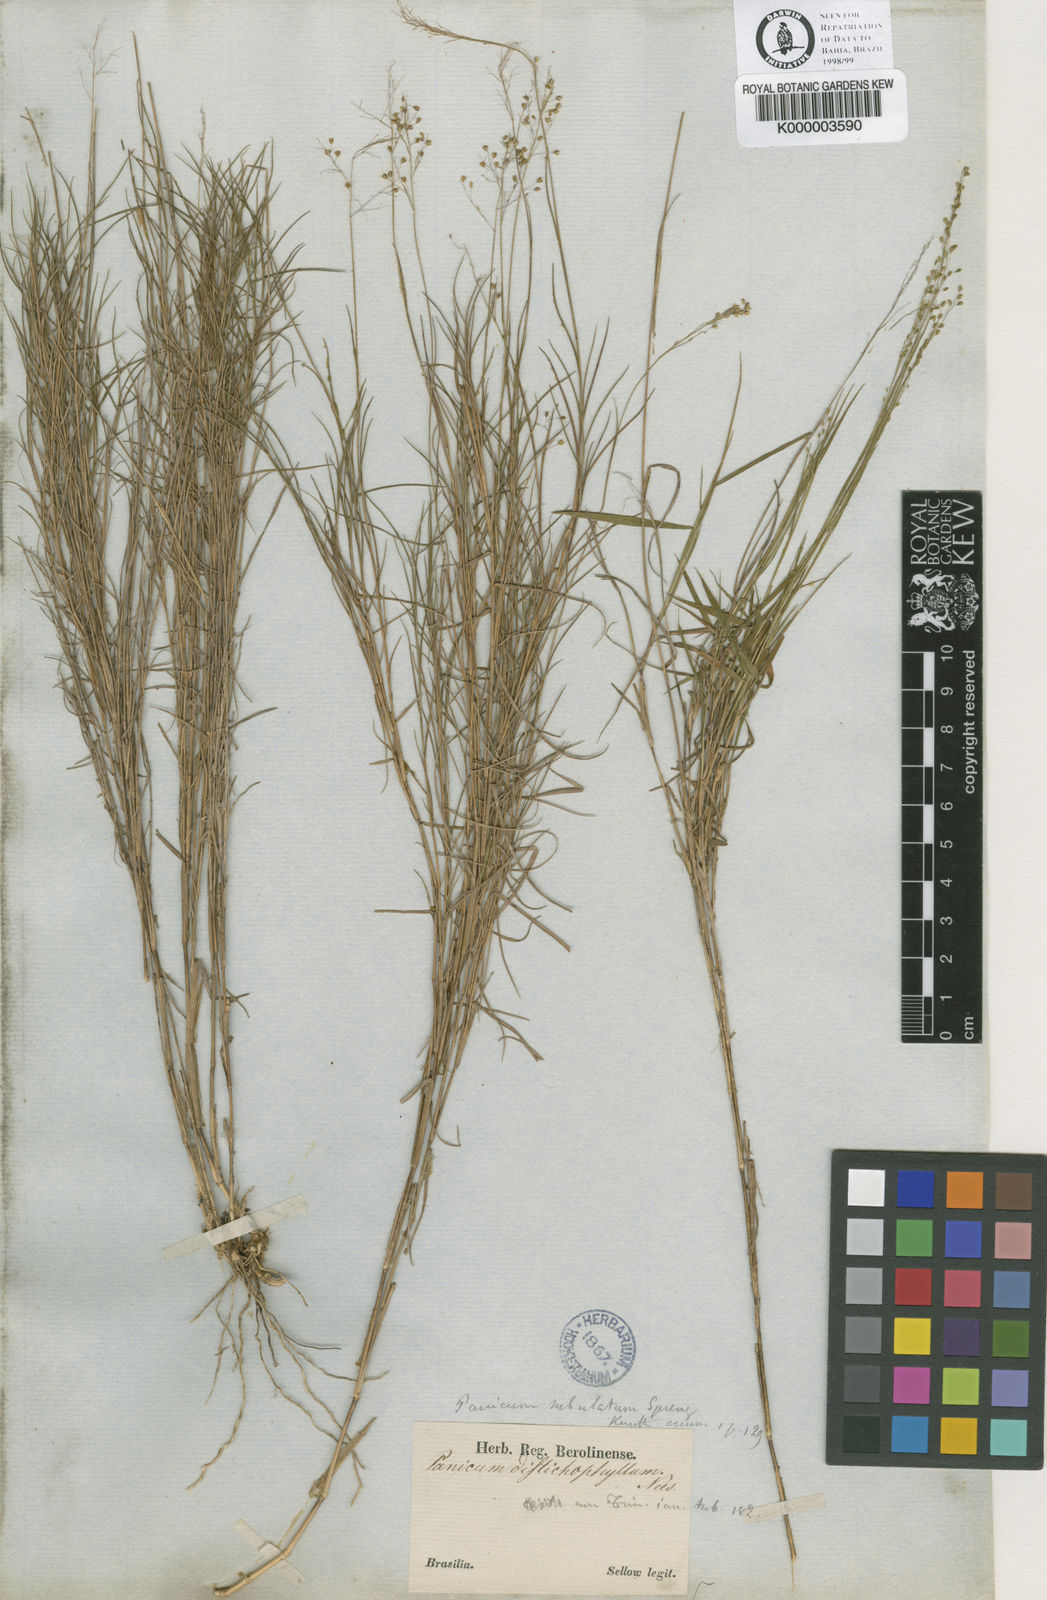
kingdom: Plantae
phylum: Tracheophyta
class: Liliopsida
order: Poales
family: Poaceae
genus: Trichanthecium
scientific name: Trichanthecium distichophyllum
